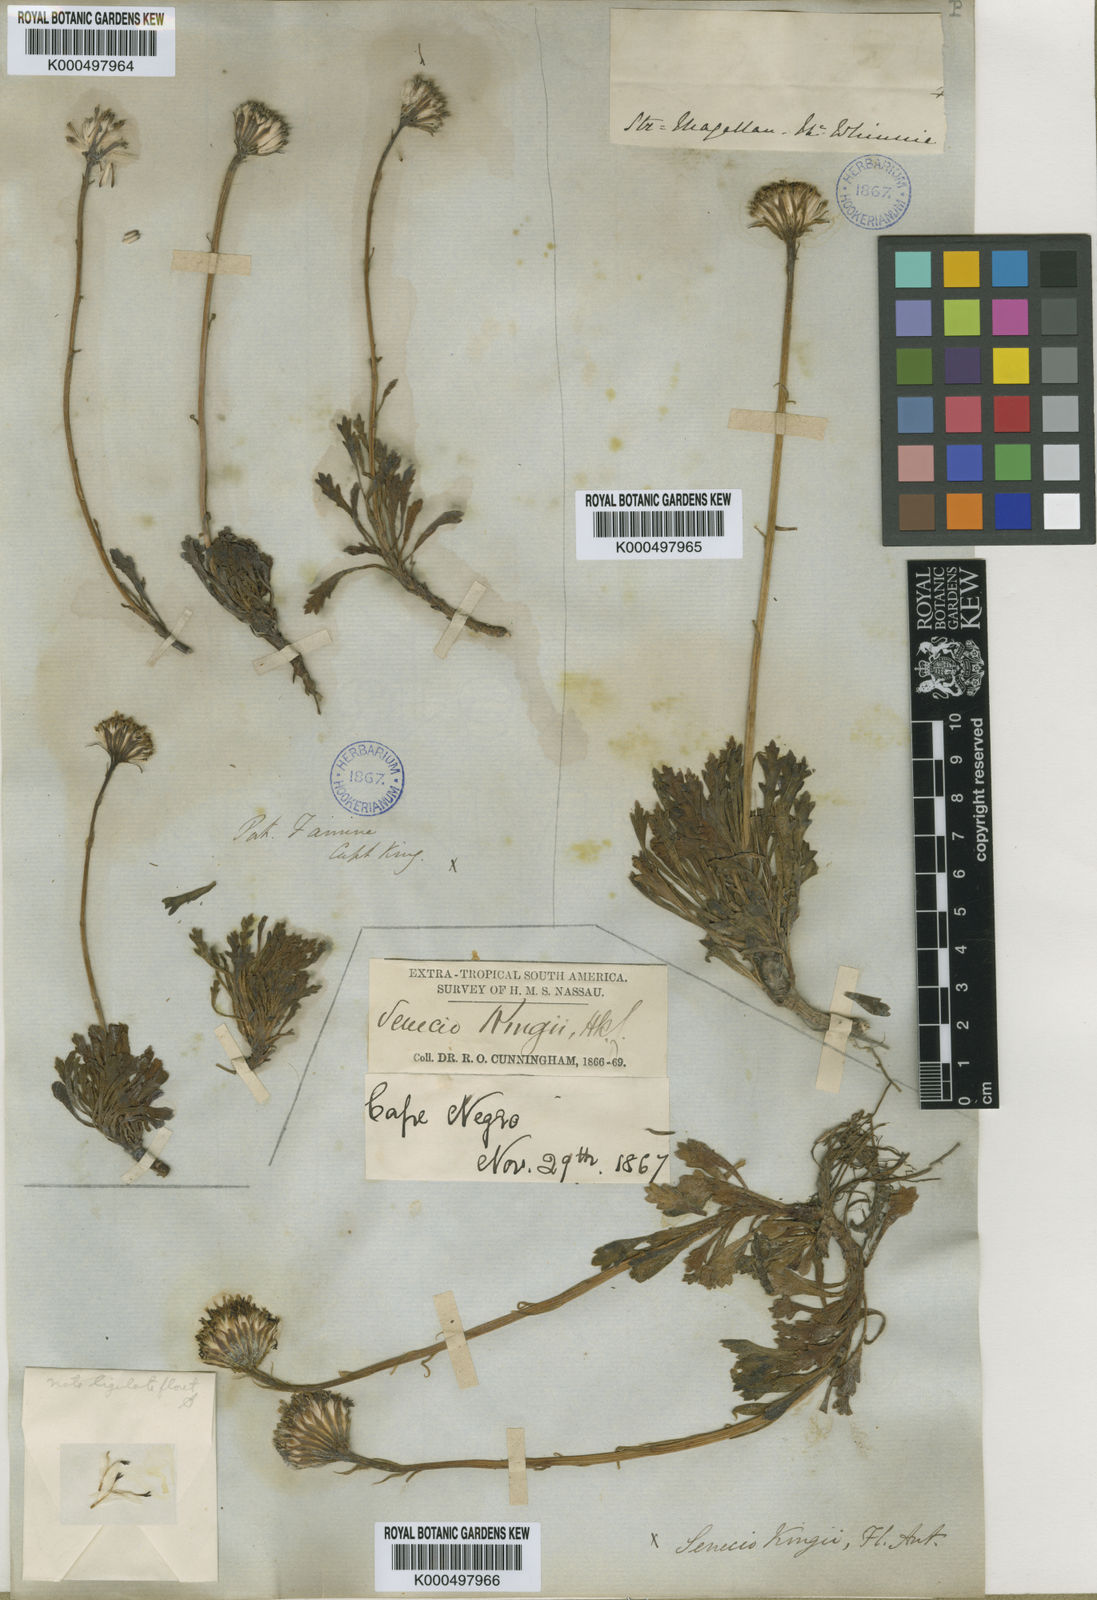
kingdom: Plantae
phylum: Tracheophyta
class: Magnoliopsida
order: Asterales
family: Asteraceae
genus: Senecio
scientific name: Senecio kingii
